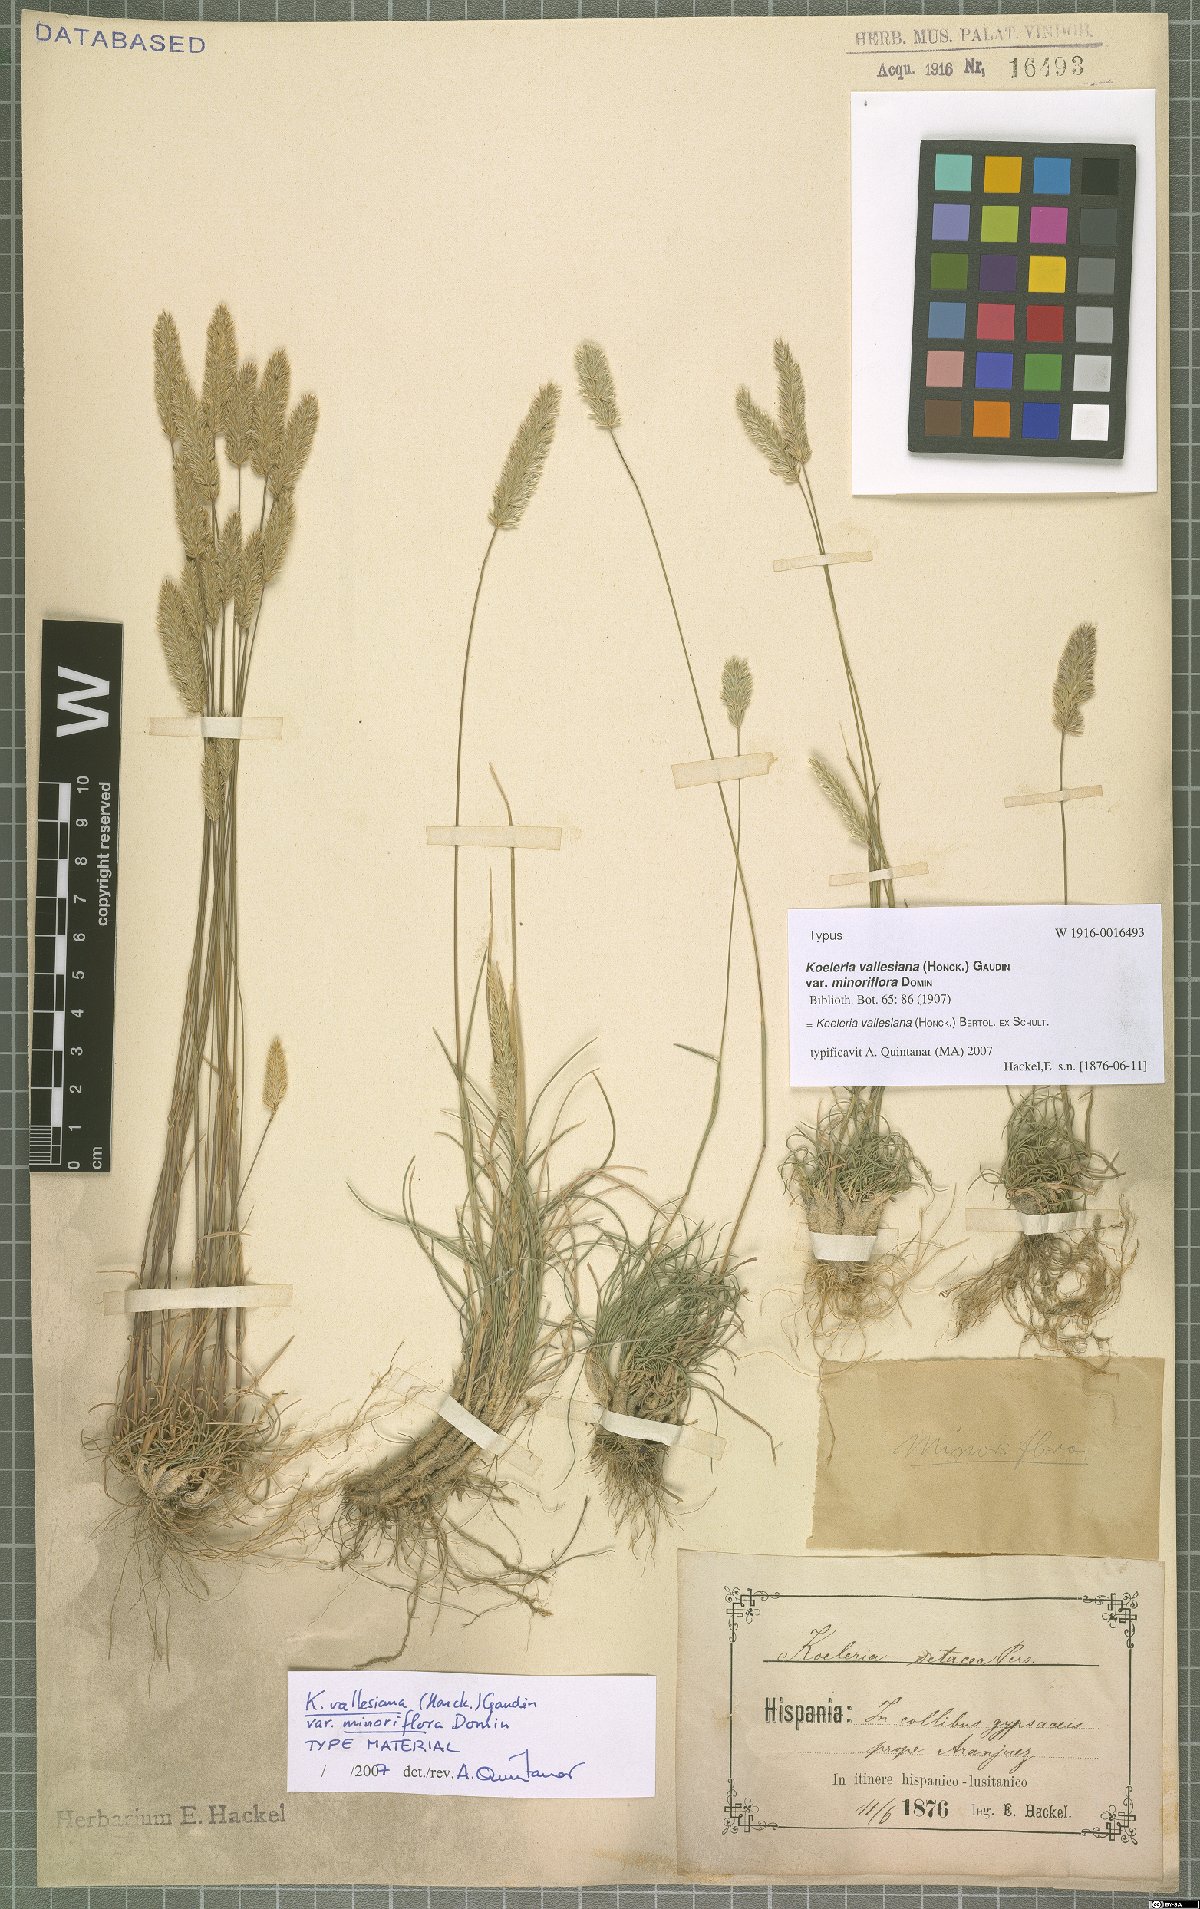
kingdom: Plantae
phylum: Tracheophyta
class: Liliopsida
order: Poales
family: Poaceae
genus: Koeleria
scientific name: Koeleria vallesiana
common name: Somerset hair-grass
